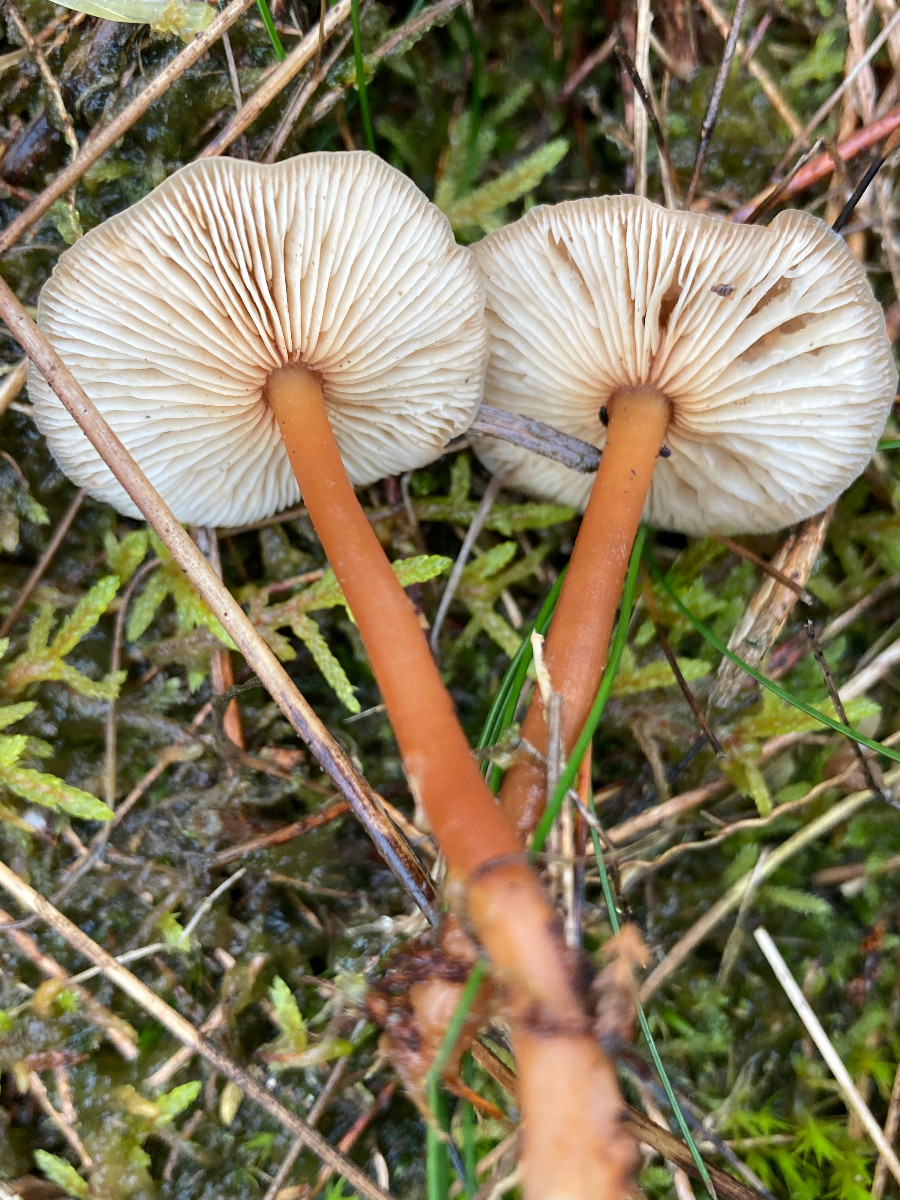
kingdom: Fungi
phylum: Basidiomycota
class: Agaricomycetes
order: Agaricales
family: Omphalotaceae
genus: Gymnopus
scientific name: Gymnopus dryophilus
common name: løv-fladhat
